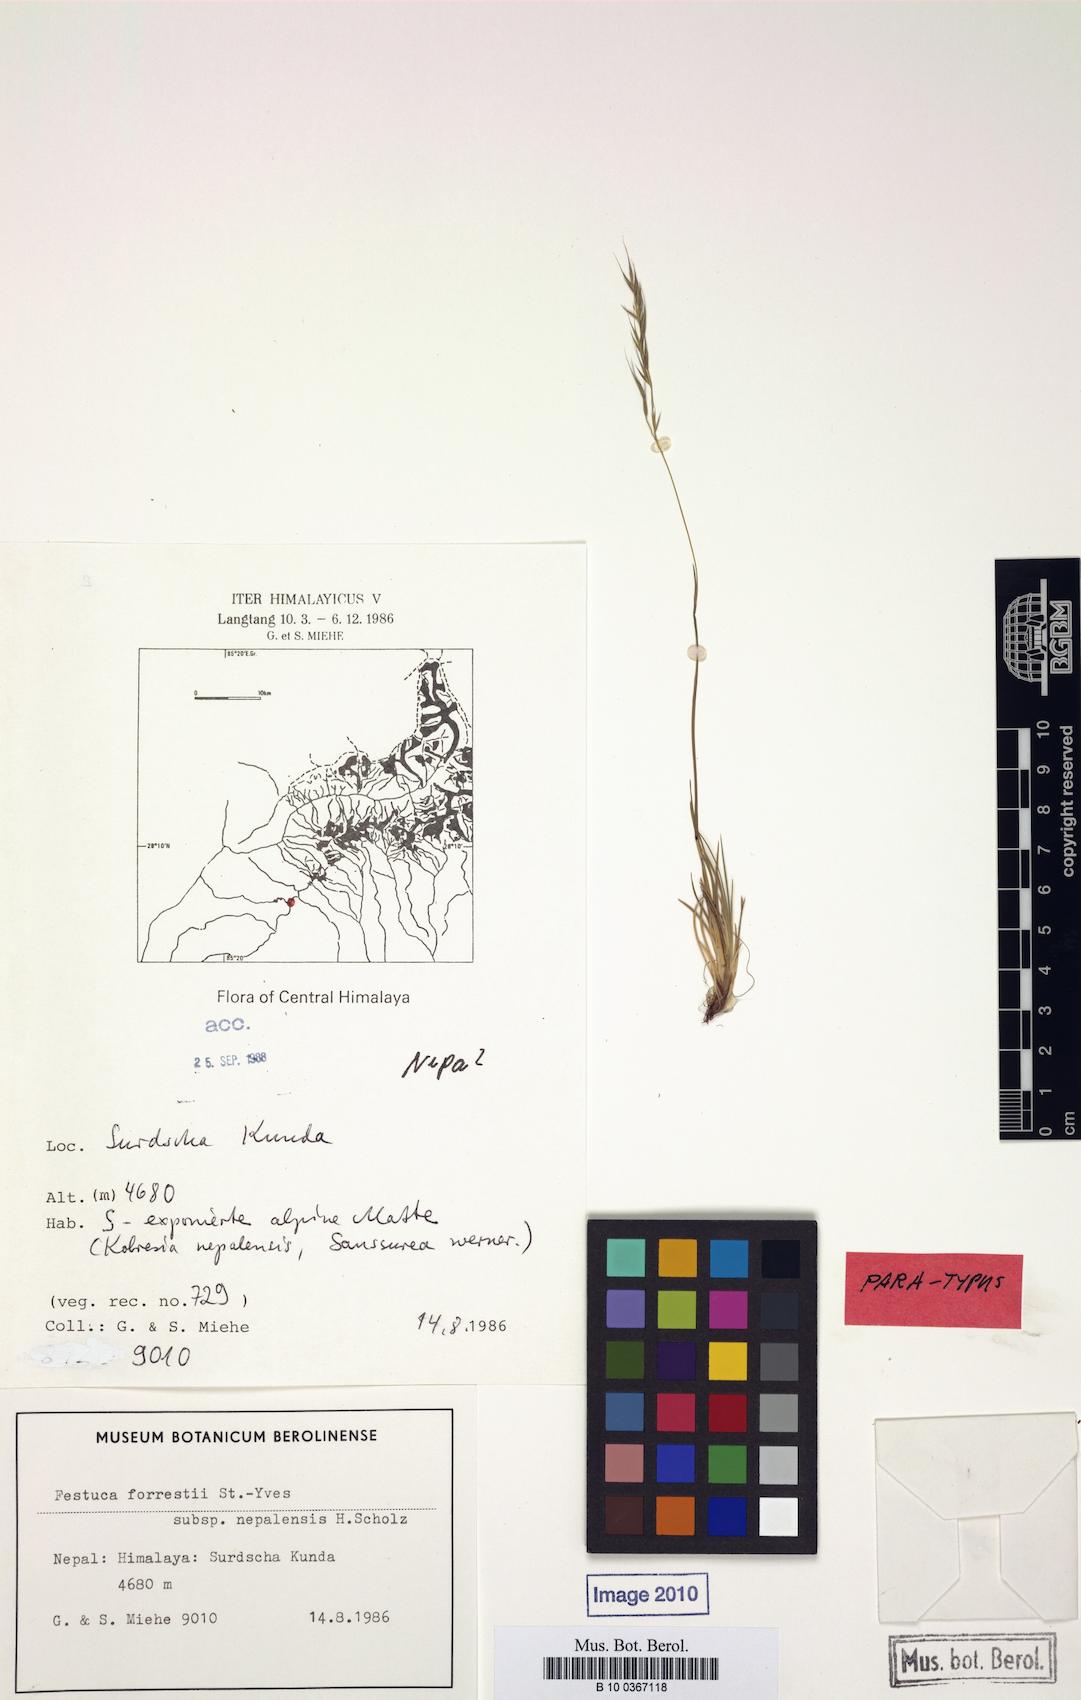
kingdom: Plantae
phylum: Tracheophyta
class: Liliopsida
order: Poales
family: Poaceae
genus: Festuca
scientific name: Festuca forrestii
